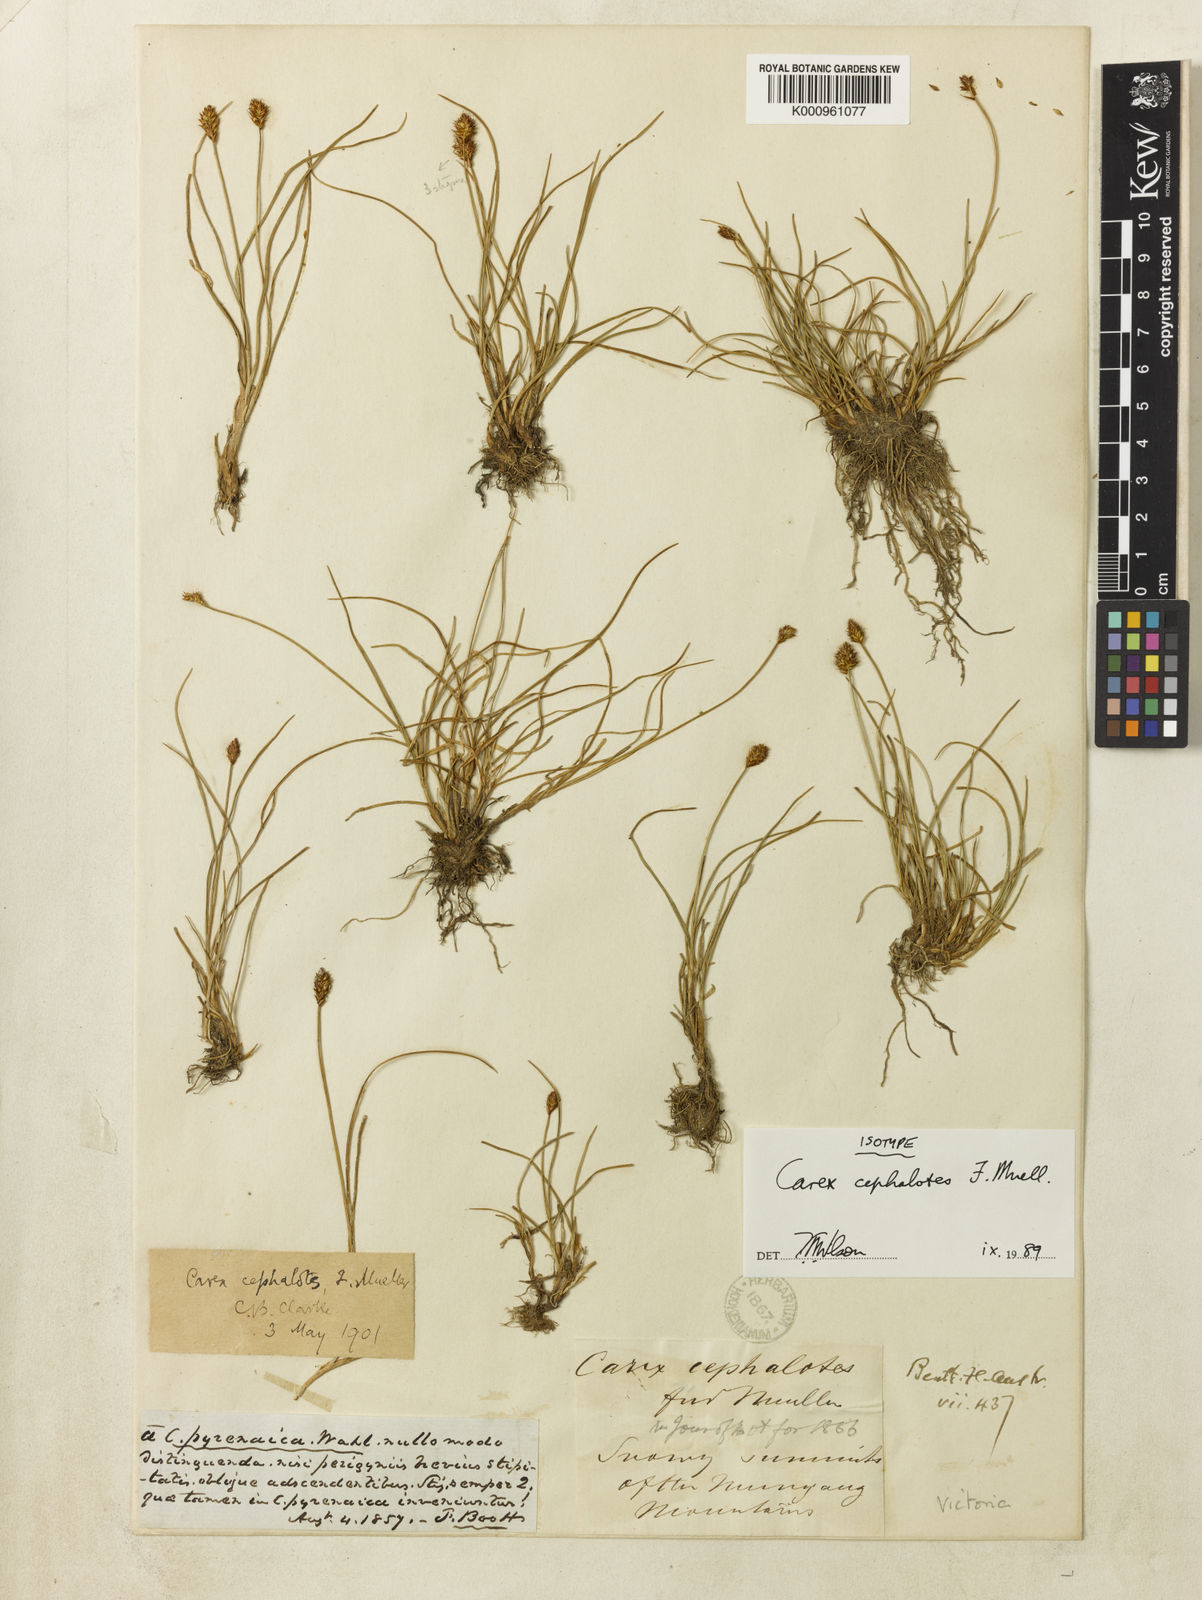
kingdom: Plantae
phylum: Tracheophyta
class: Liliopsida
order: Poales
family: Cyperaceae
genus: Carex
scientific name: Carex cephalotes
